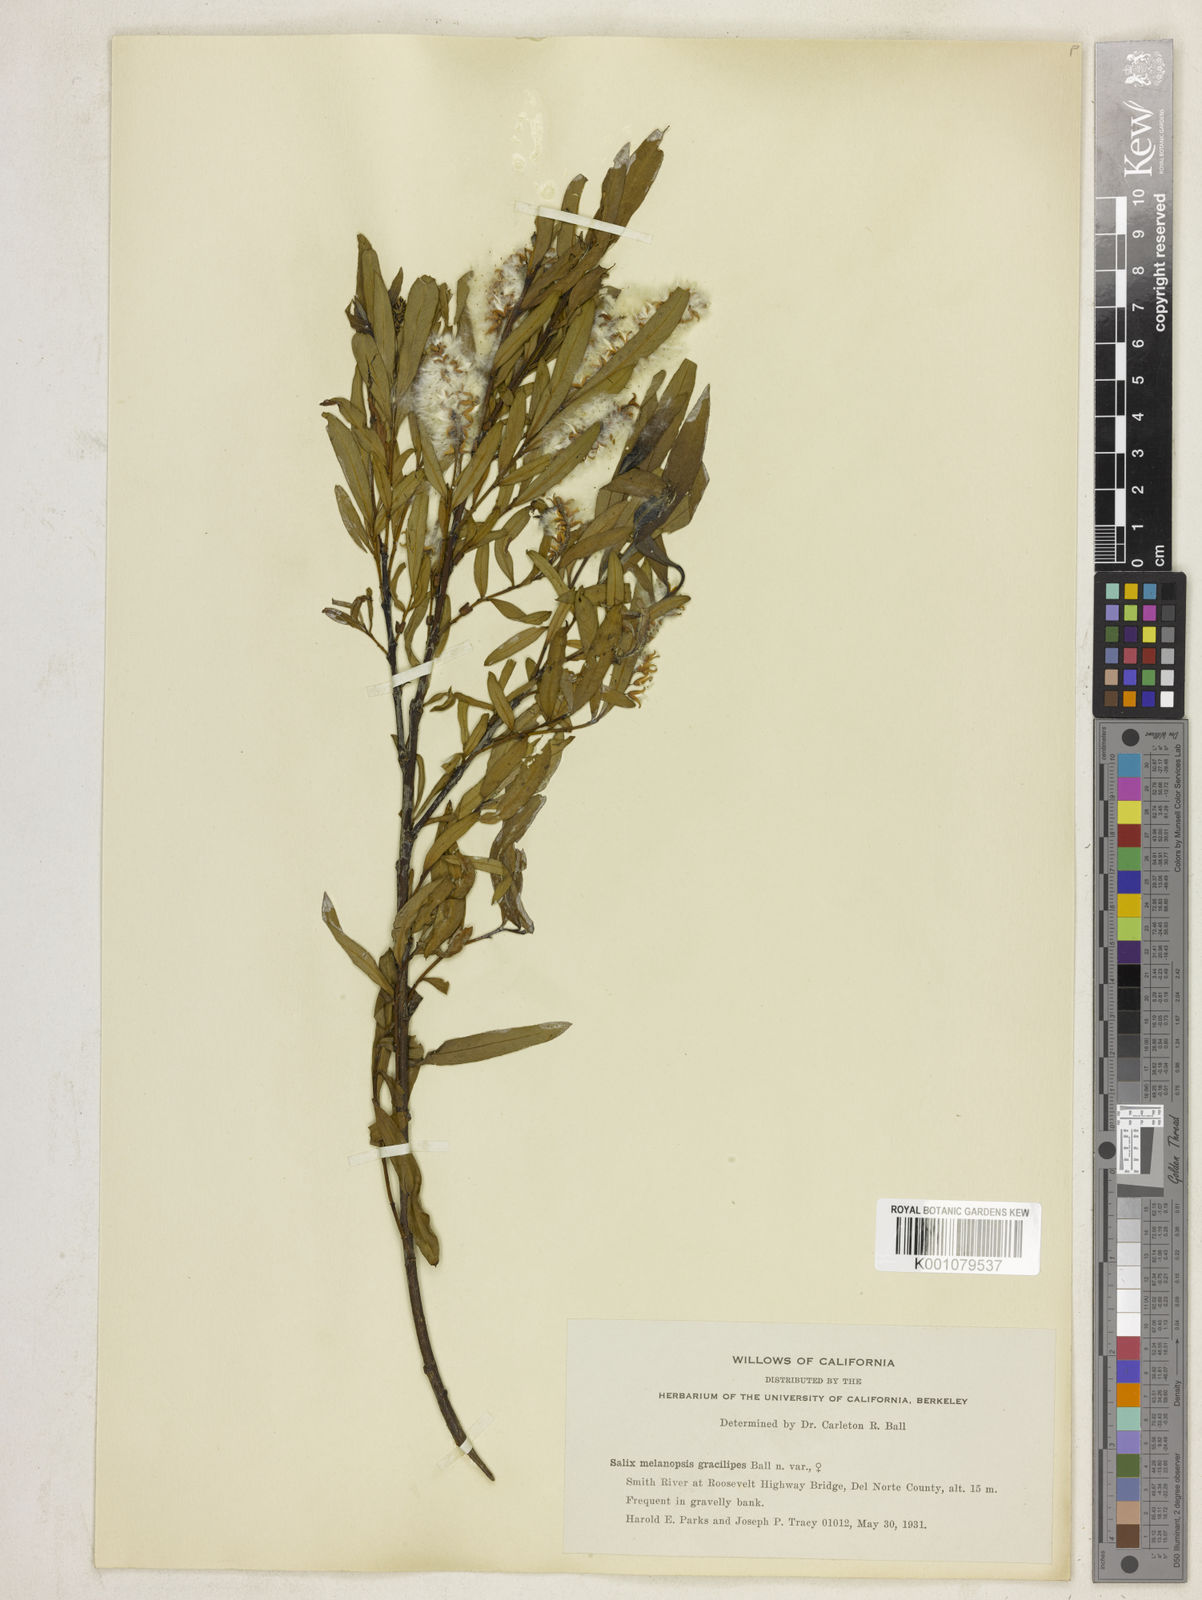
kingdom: Plantae
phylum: Tracheophyta
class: Magnoliopsida
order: Malpighiales
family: Salicaceae
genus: Salix
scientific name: Salix melanopsis
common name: Dusky willow
